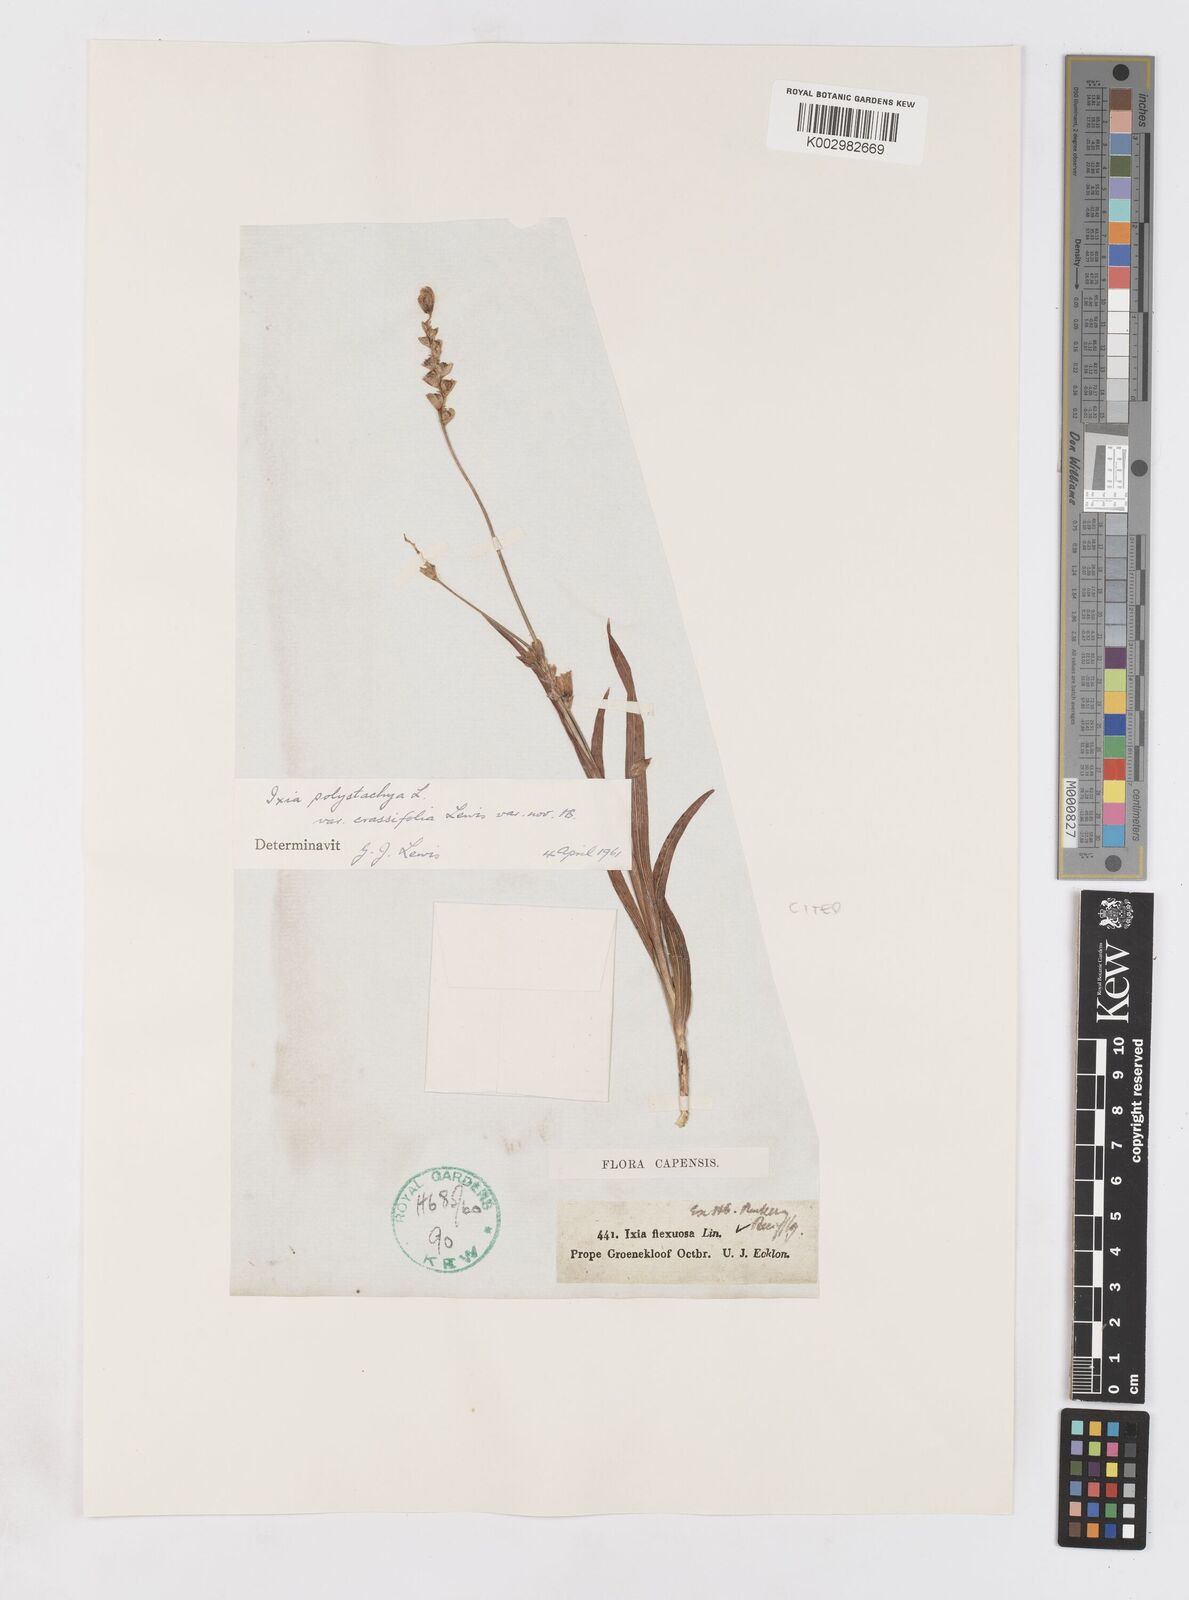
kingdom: Plantae
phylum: Tracheophyta
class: Liliopsida
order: Asparagales
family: Iridaceae
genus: Ixia
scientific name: Ixia polystachya
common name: White-and-yellow-flower cornlily
